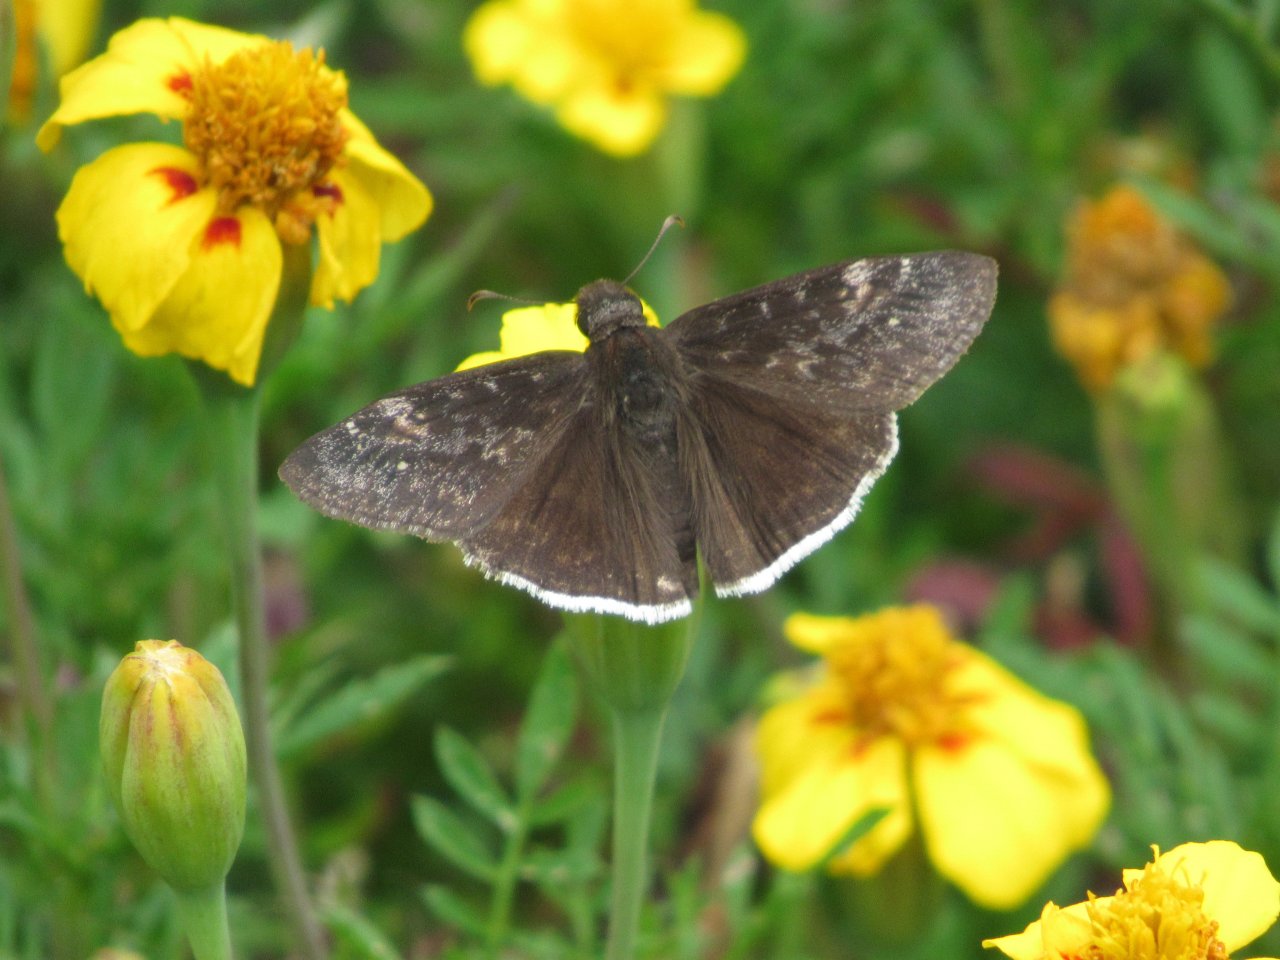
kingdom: Animalia
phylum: Arthropoda
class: Insecta
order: Lepidoptera
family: Hesperiidae
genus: Erynnis
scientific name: Erynnis funeralis
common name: Funereal Duskywing
